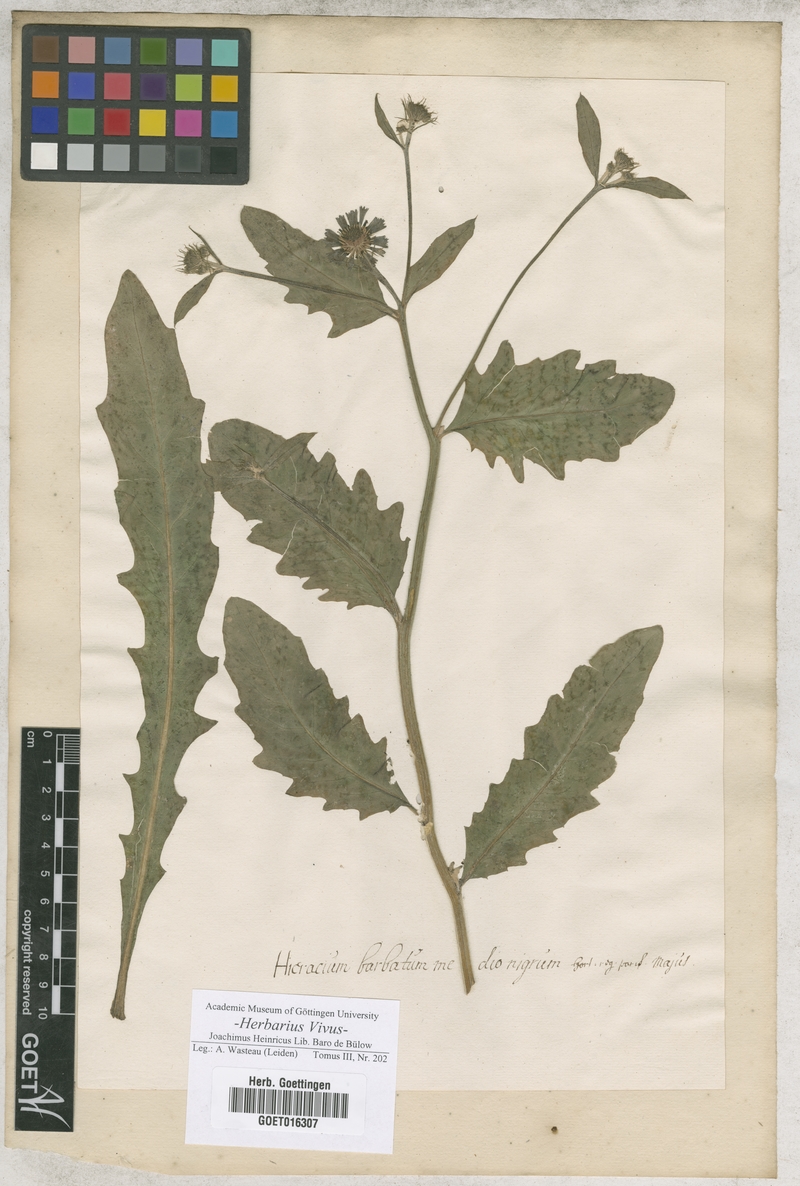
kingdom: Plantae
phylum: Tracheophyta
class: Magnoliopsida
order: Asterales
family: Asteraceae
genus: Hieracium
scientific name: Hieracium
